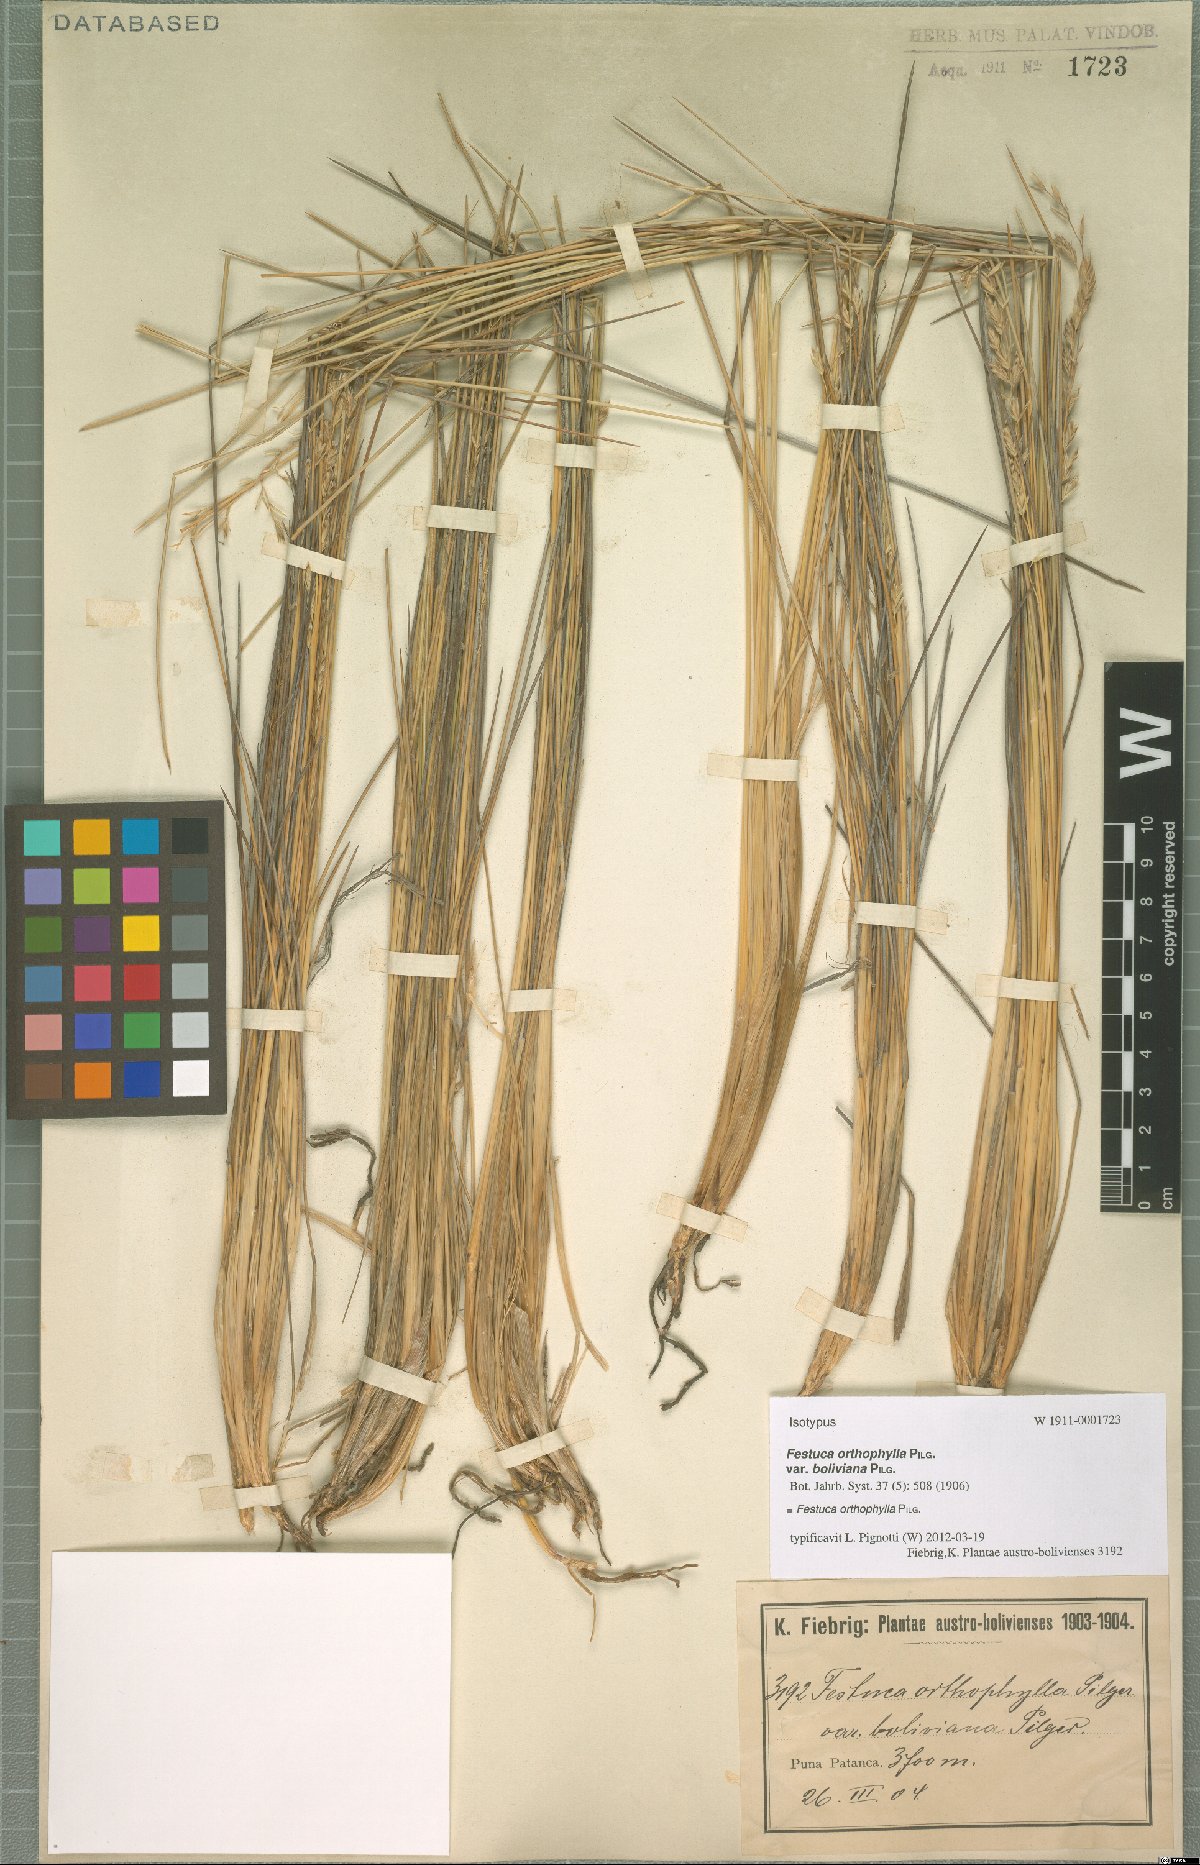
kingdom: Plantae
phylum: Tracheophyta
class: Liliopsida
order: Poales
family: Poaceae
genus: Festuca
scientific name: Festuca chrysophylla
